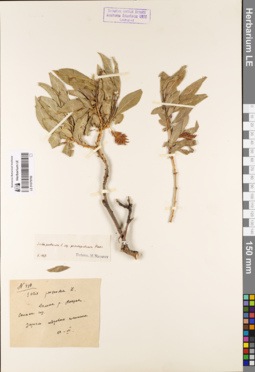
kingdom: Plantae
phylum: Tracheophyta
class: Magnoliopsida
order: Malpighiales
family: Salicaceae
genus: Salix
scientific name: Salix pseudopentandra
